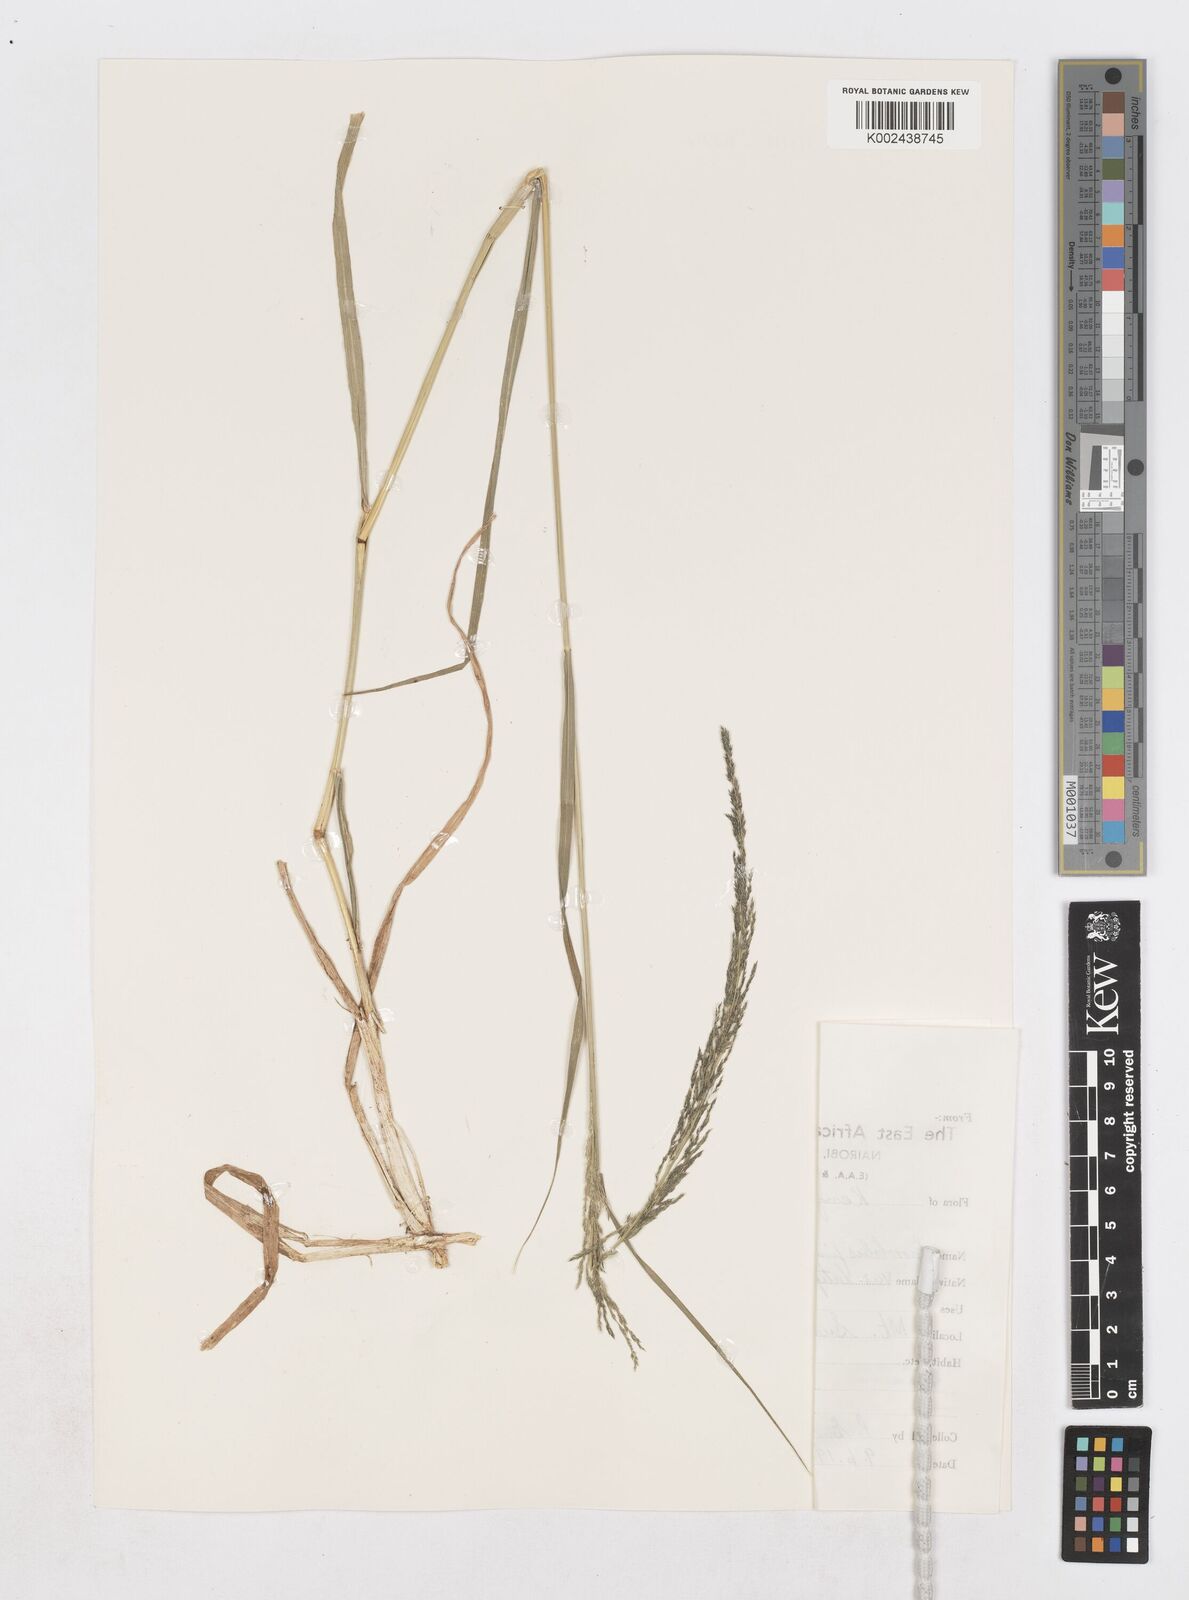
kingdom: Plantae
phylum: Tracheophyta
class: Liliopsida
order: Poales
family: Poaceae
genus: Sporobolus
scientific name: Sporobolus fimbriatus
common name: Fringed dropseed
